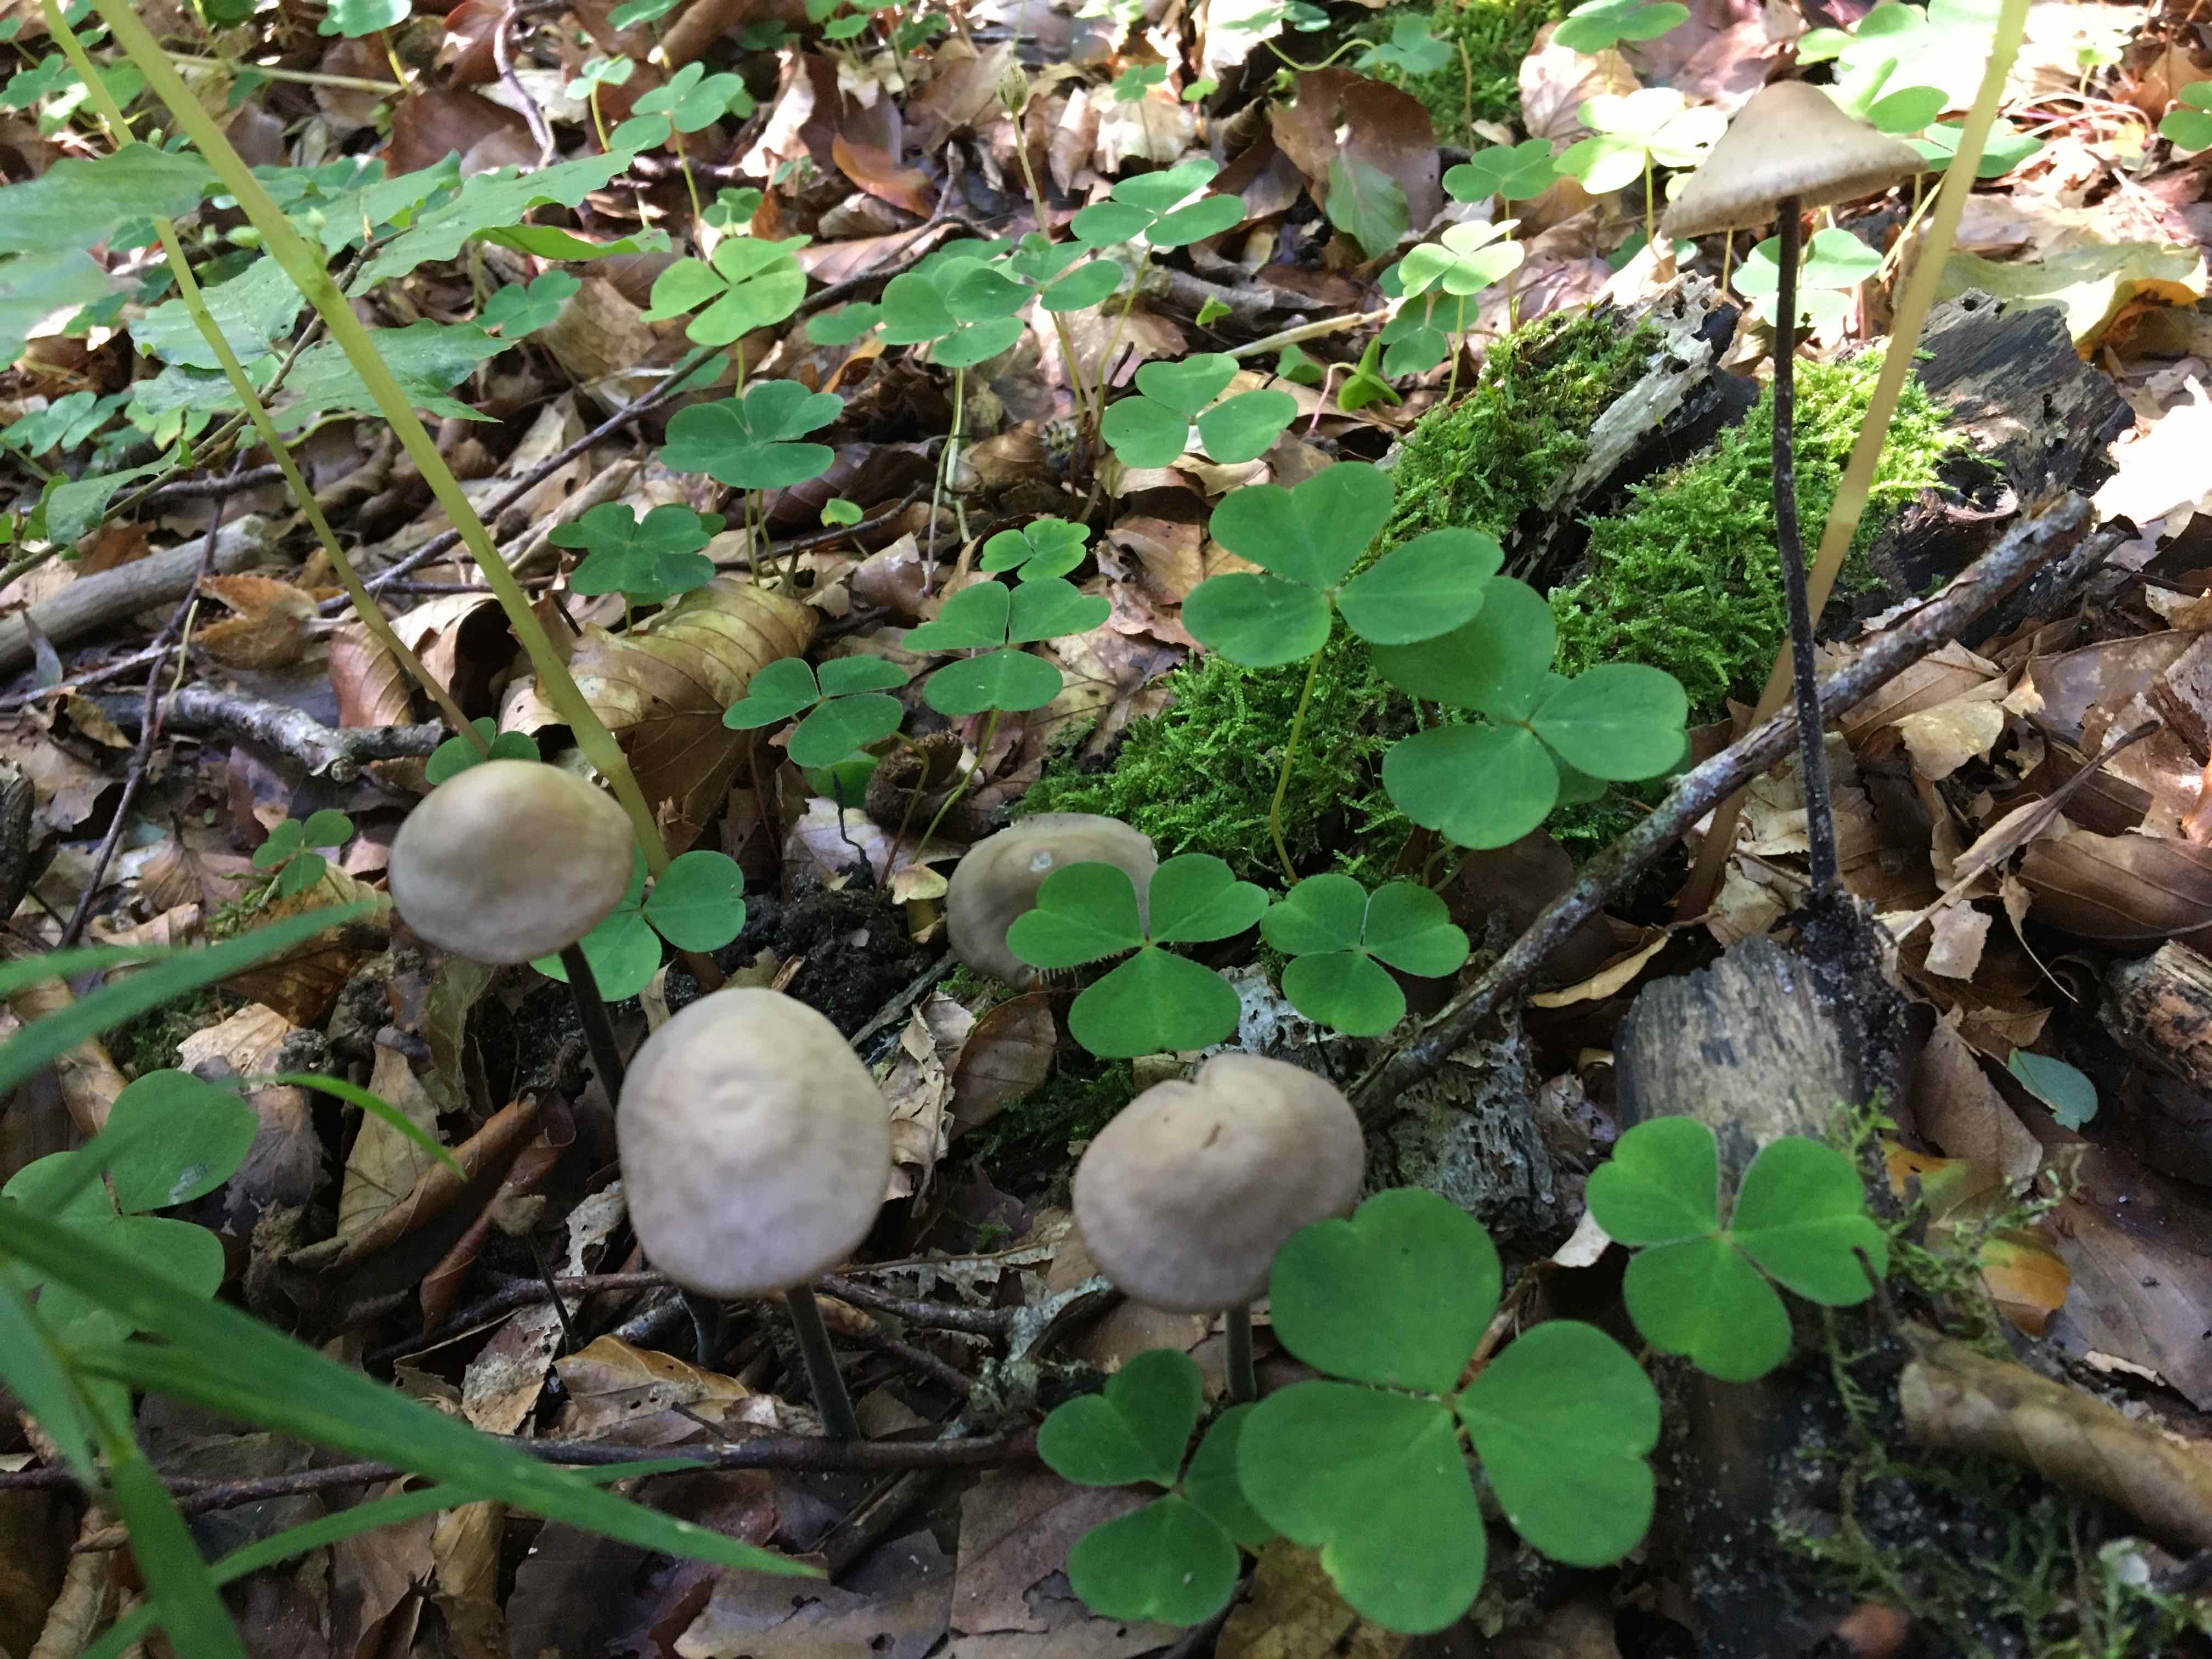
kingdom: Fungi
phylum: Basidiomycota
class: Agaricomycetes
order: Agaricales
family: Omphalotaceae
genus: Mycetinis
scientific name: Mycetinis alliaceus
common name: stor løghat
